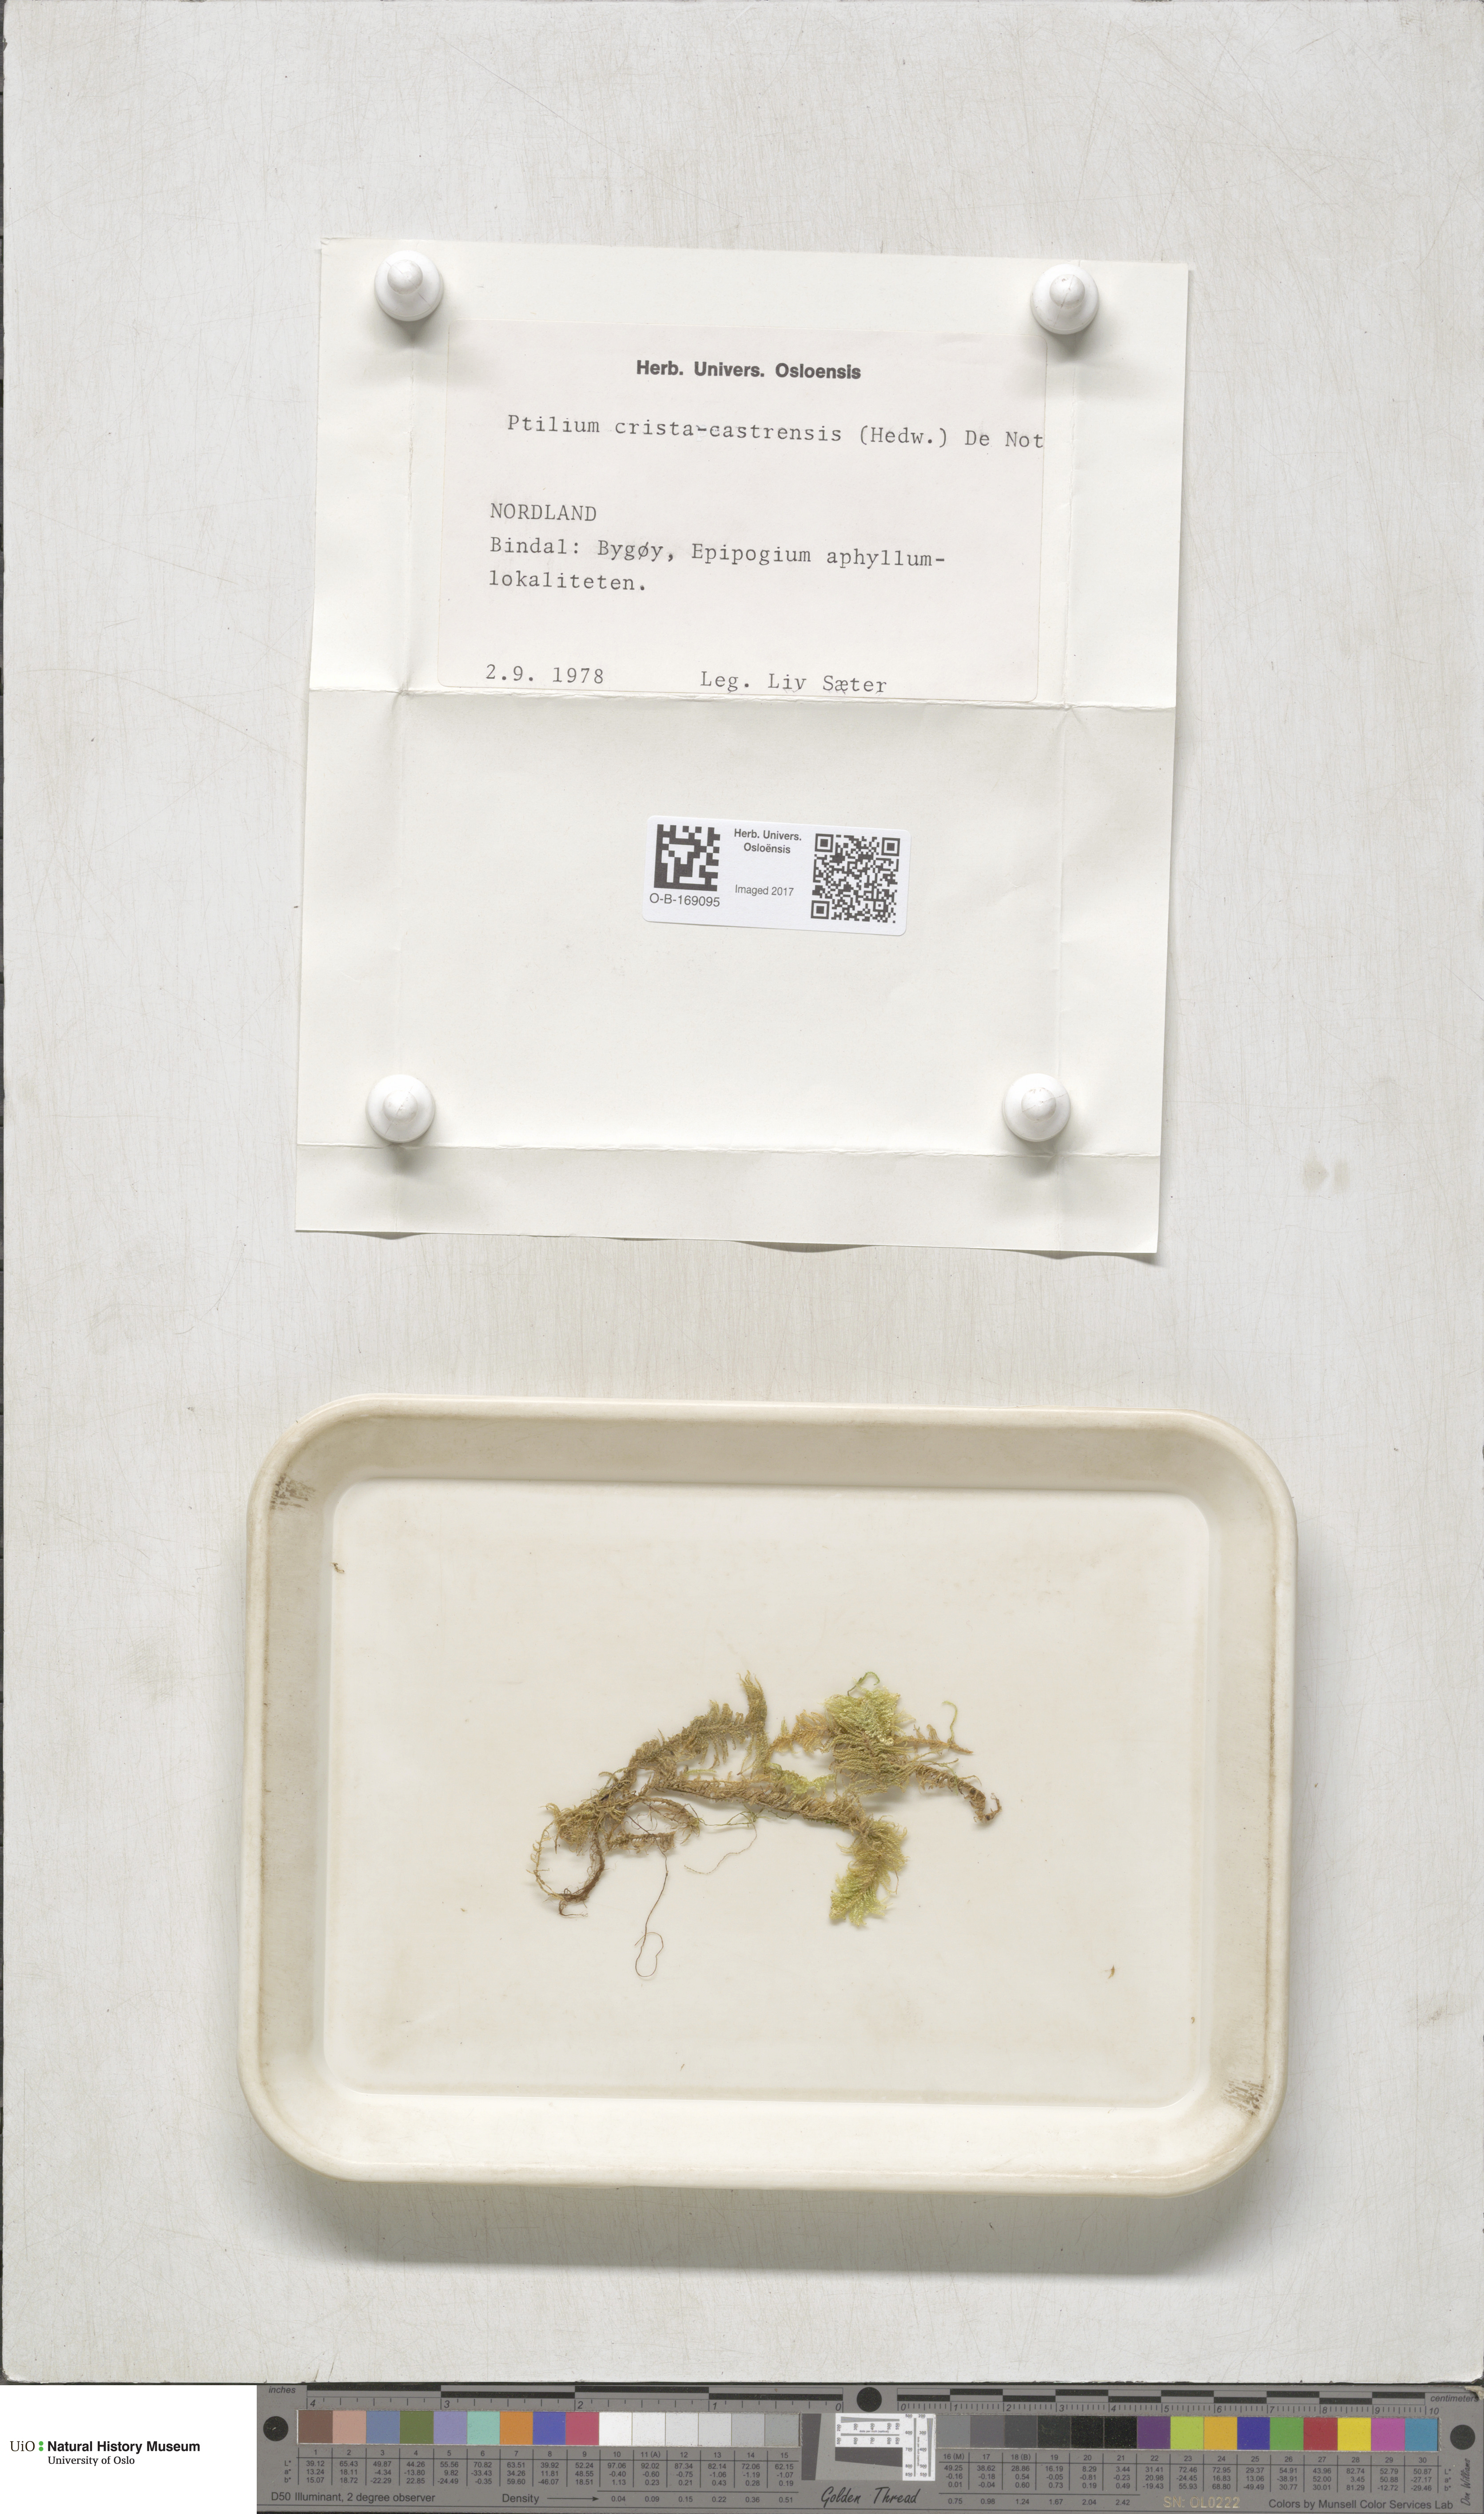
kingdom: Plantae
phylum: Bryophyta
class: Bryopsida
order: Hypnales
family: Pylaisiaceae
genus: Ptilium
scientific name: Ptilium crista-castrensis
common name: Knight's plume moss
